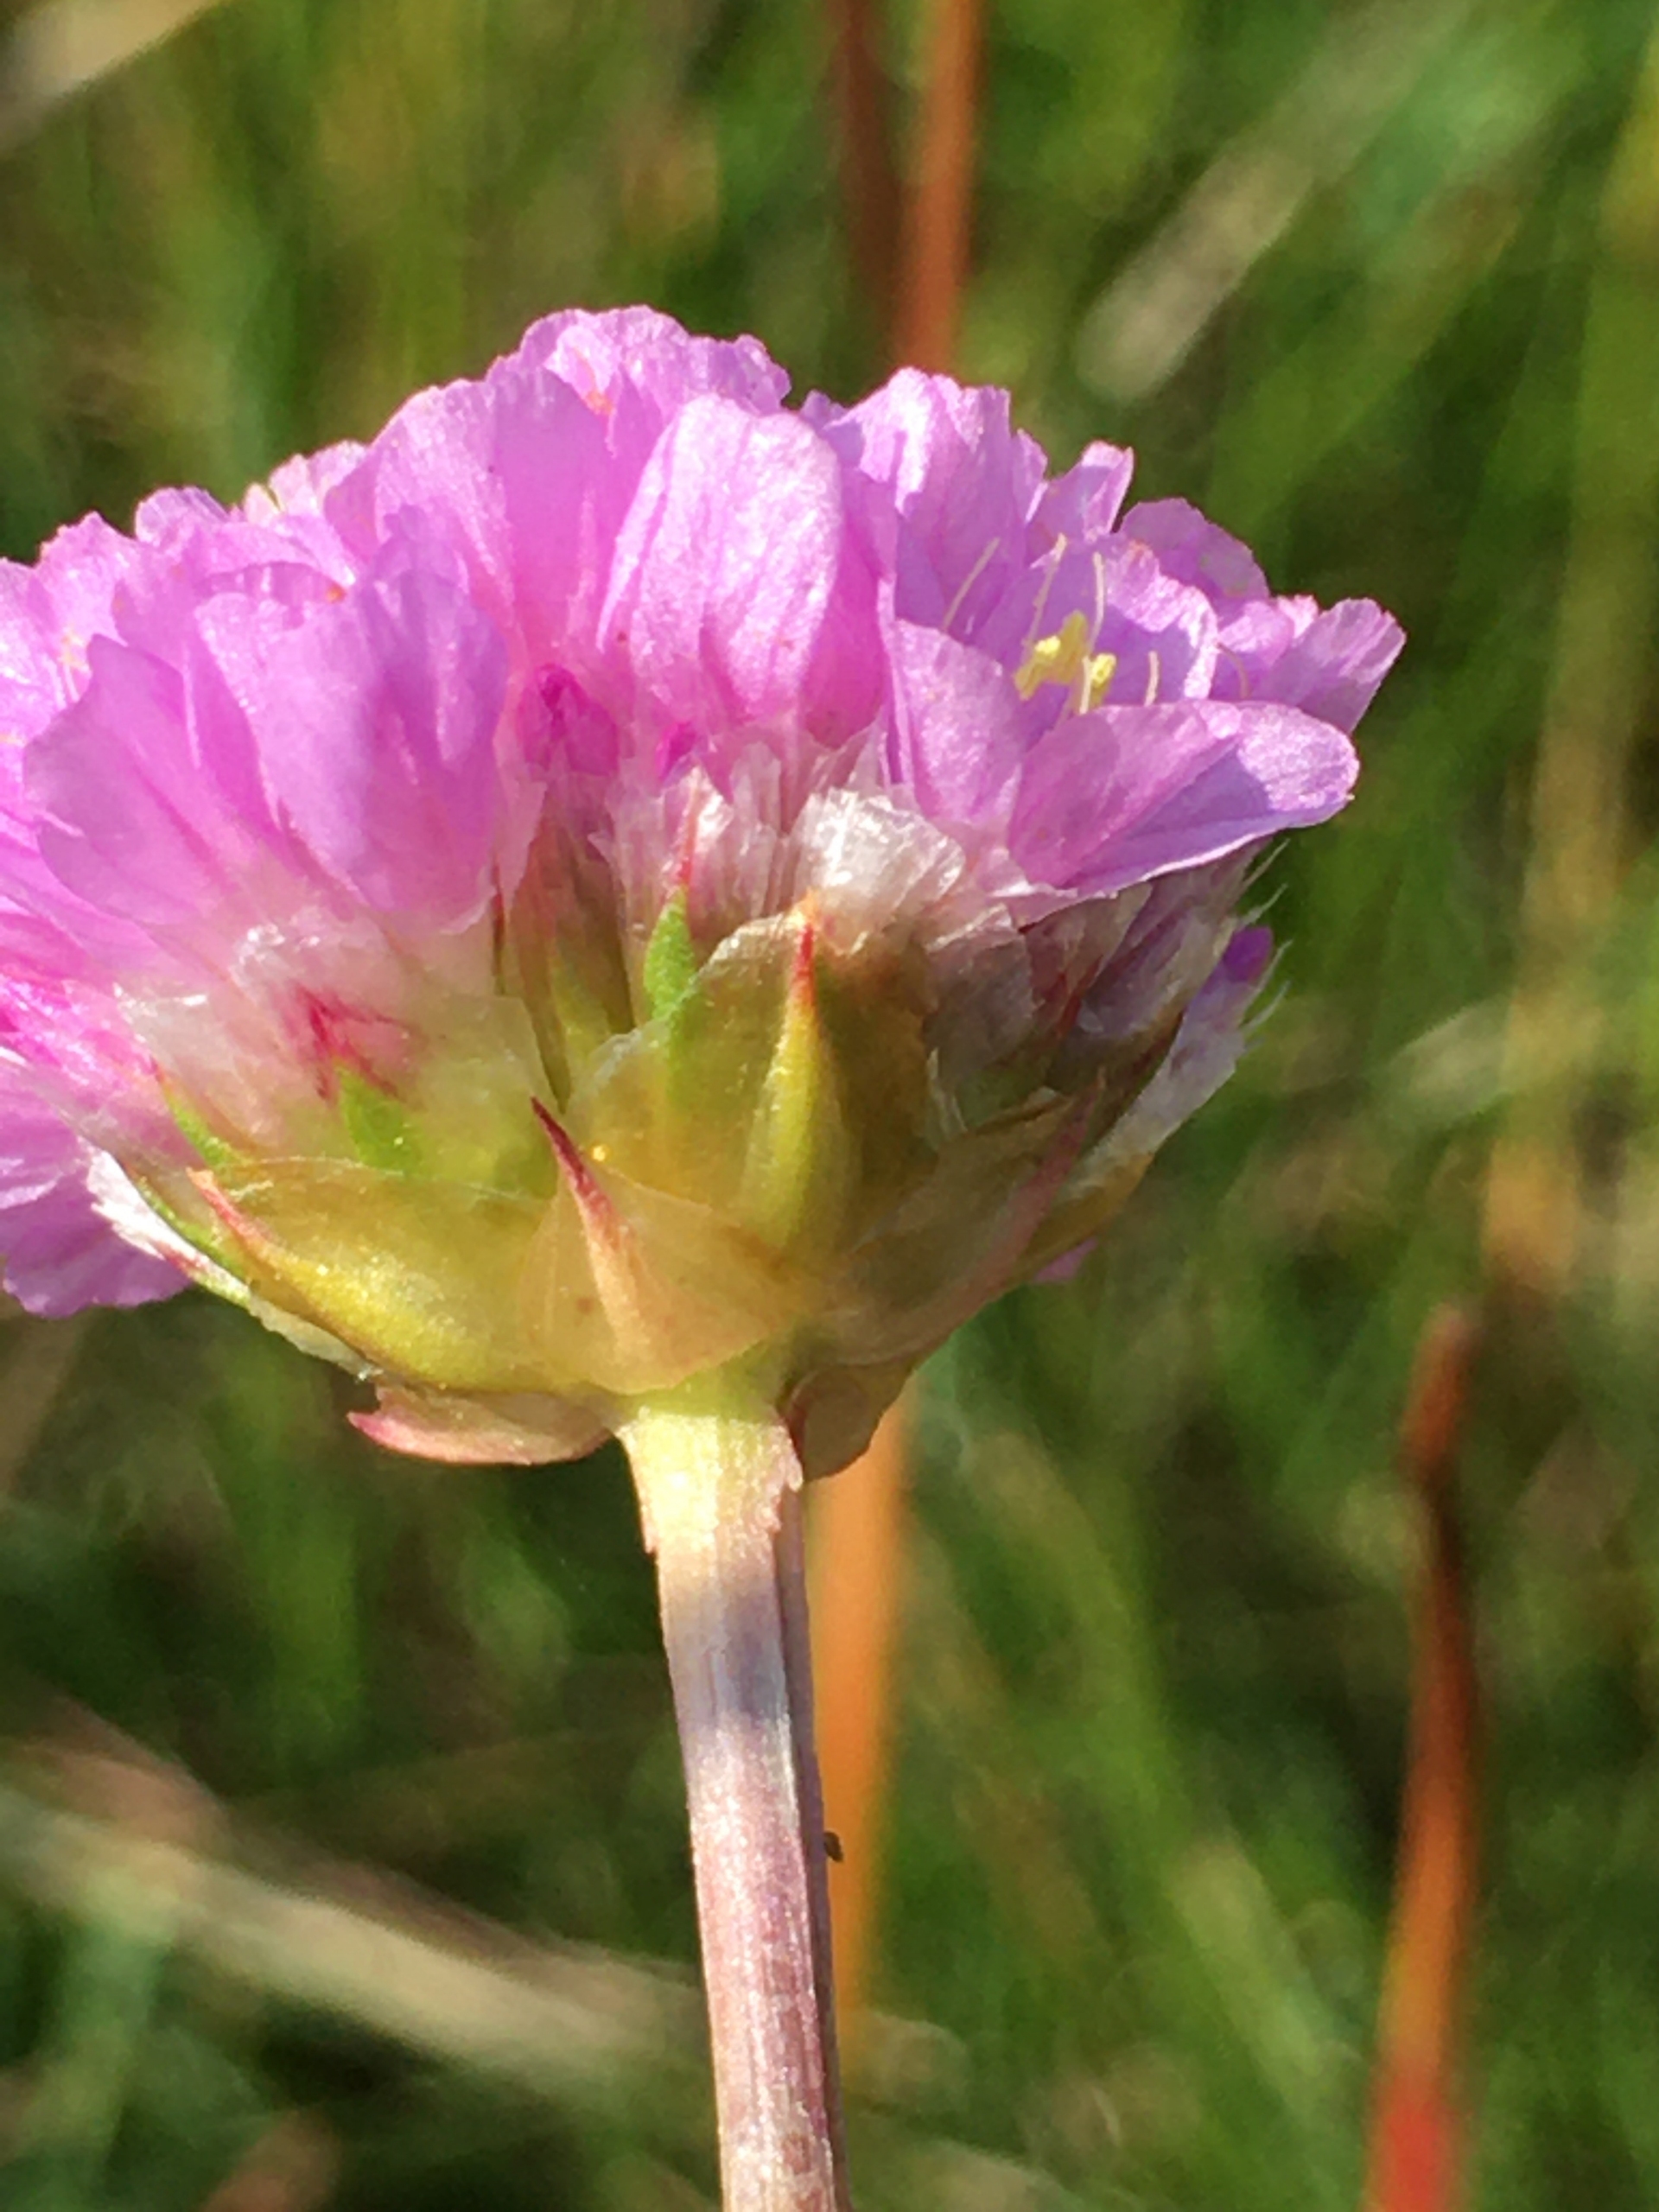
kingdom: Plantae
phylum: Tracheophyta
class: Magnoliopsida
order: Caryophyllales
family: Plumbaginaceae
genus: Armeria
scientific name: Armeria maritima
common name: Vej-engelskgræs
